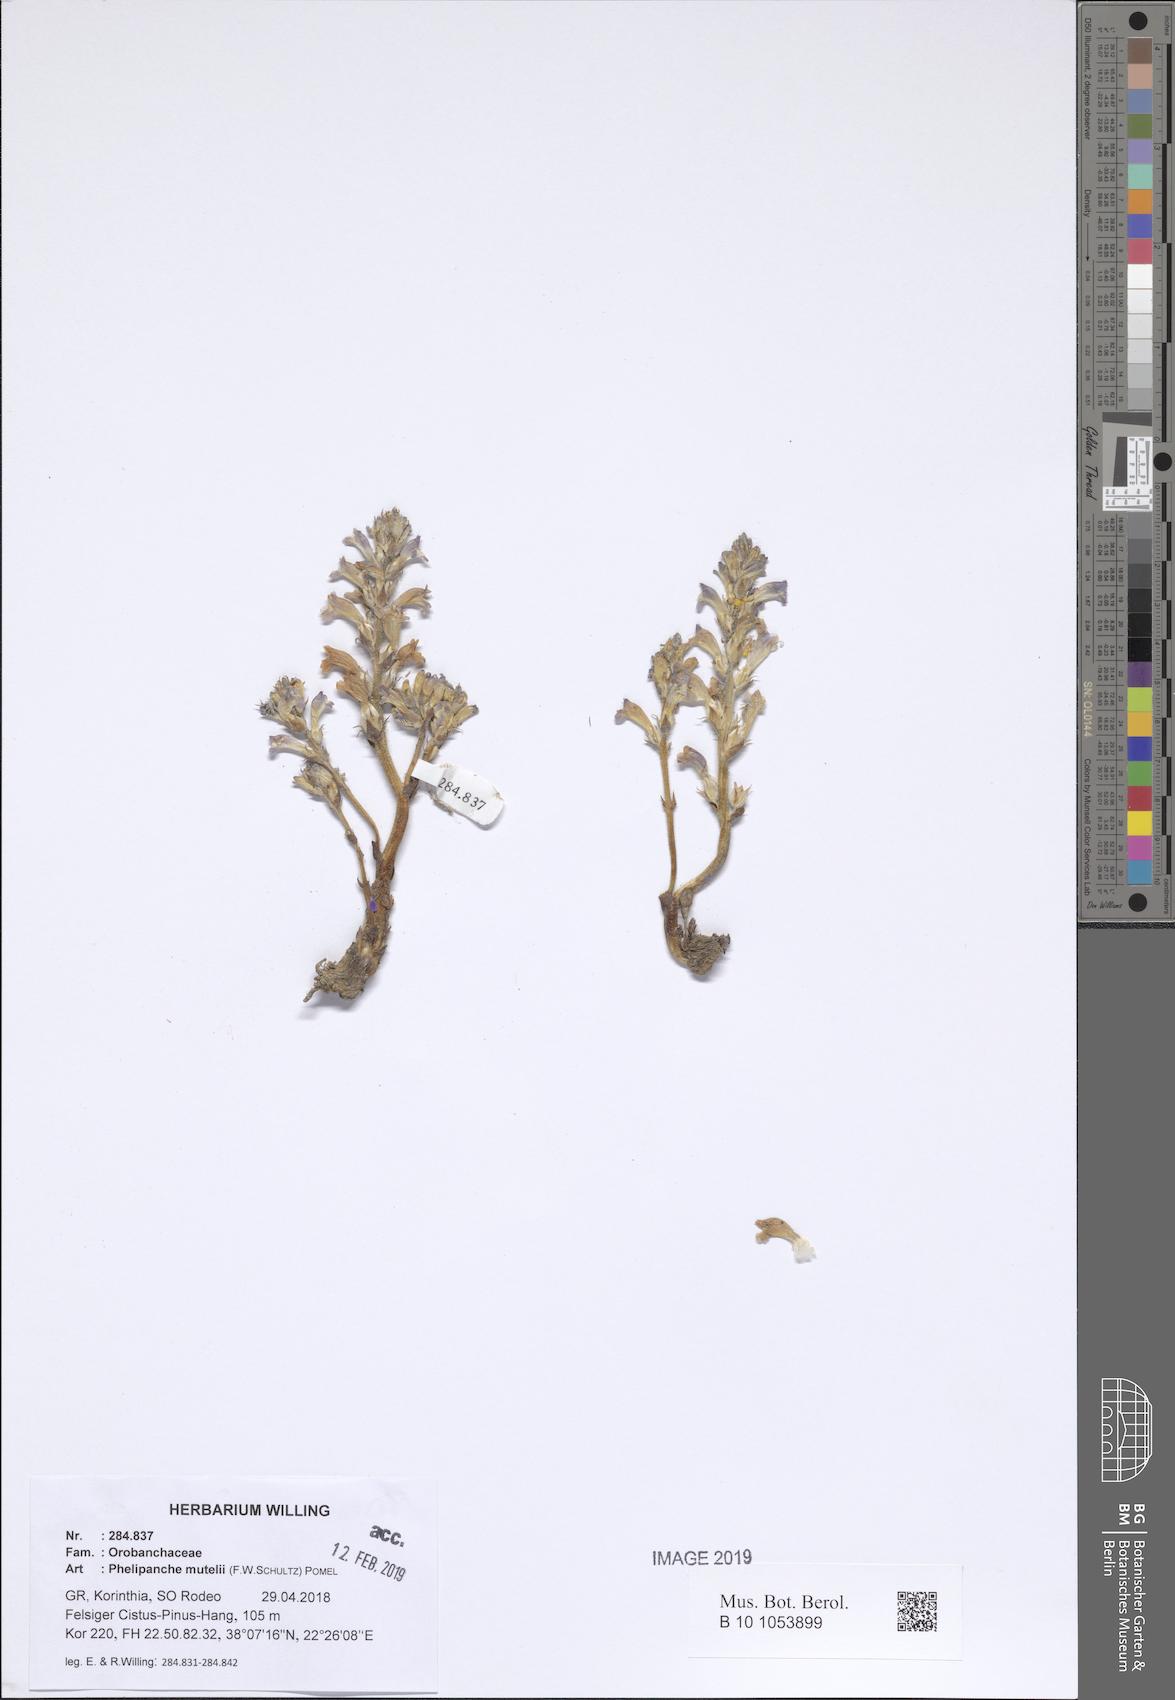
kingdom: Plantae
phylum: Tracheophyta
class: Magnoliopsida
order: Lamiales
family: Orobanchaceae
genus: Phelipanche
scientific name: Phelipanche mutelii
